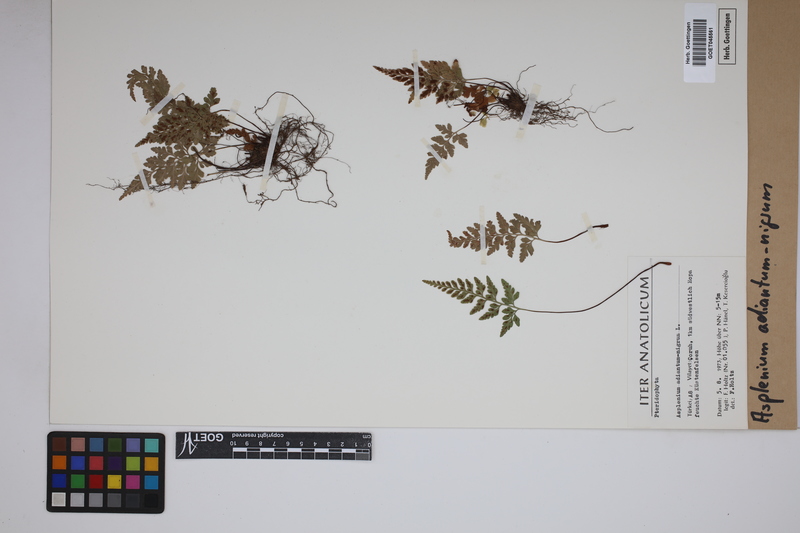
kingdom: Plantae
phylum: Tracheophyta
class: Polypodiopsida
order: Polypodiales
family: Aspleniaceae
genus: Asplenium
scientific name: Asplenium adiantum-nigrum
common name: Black spleenwort
